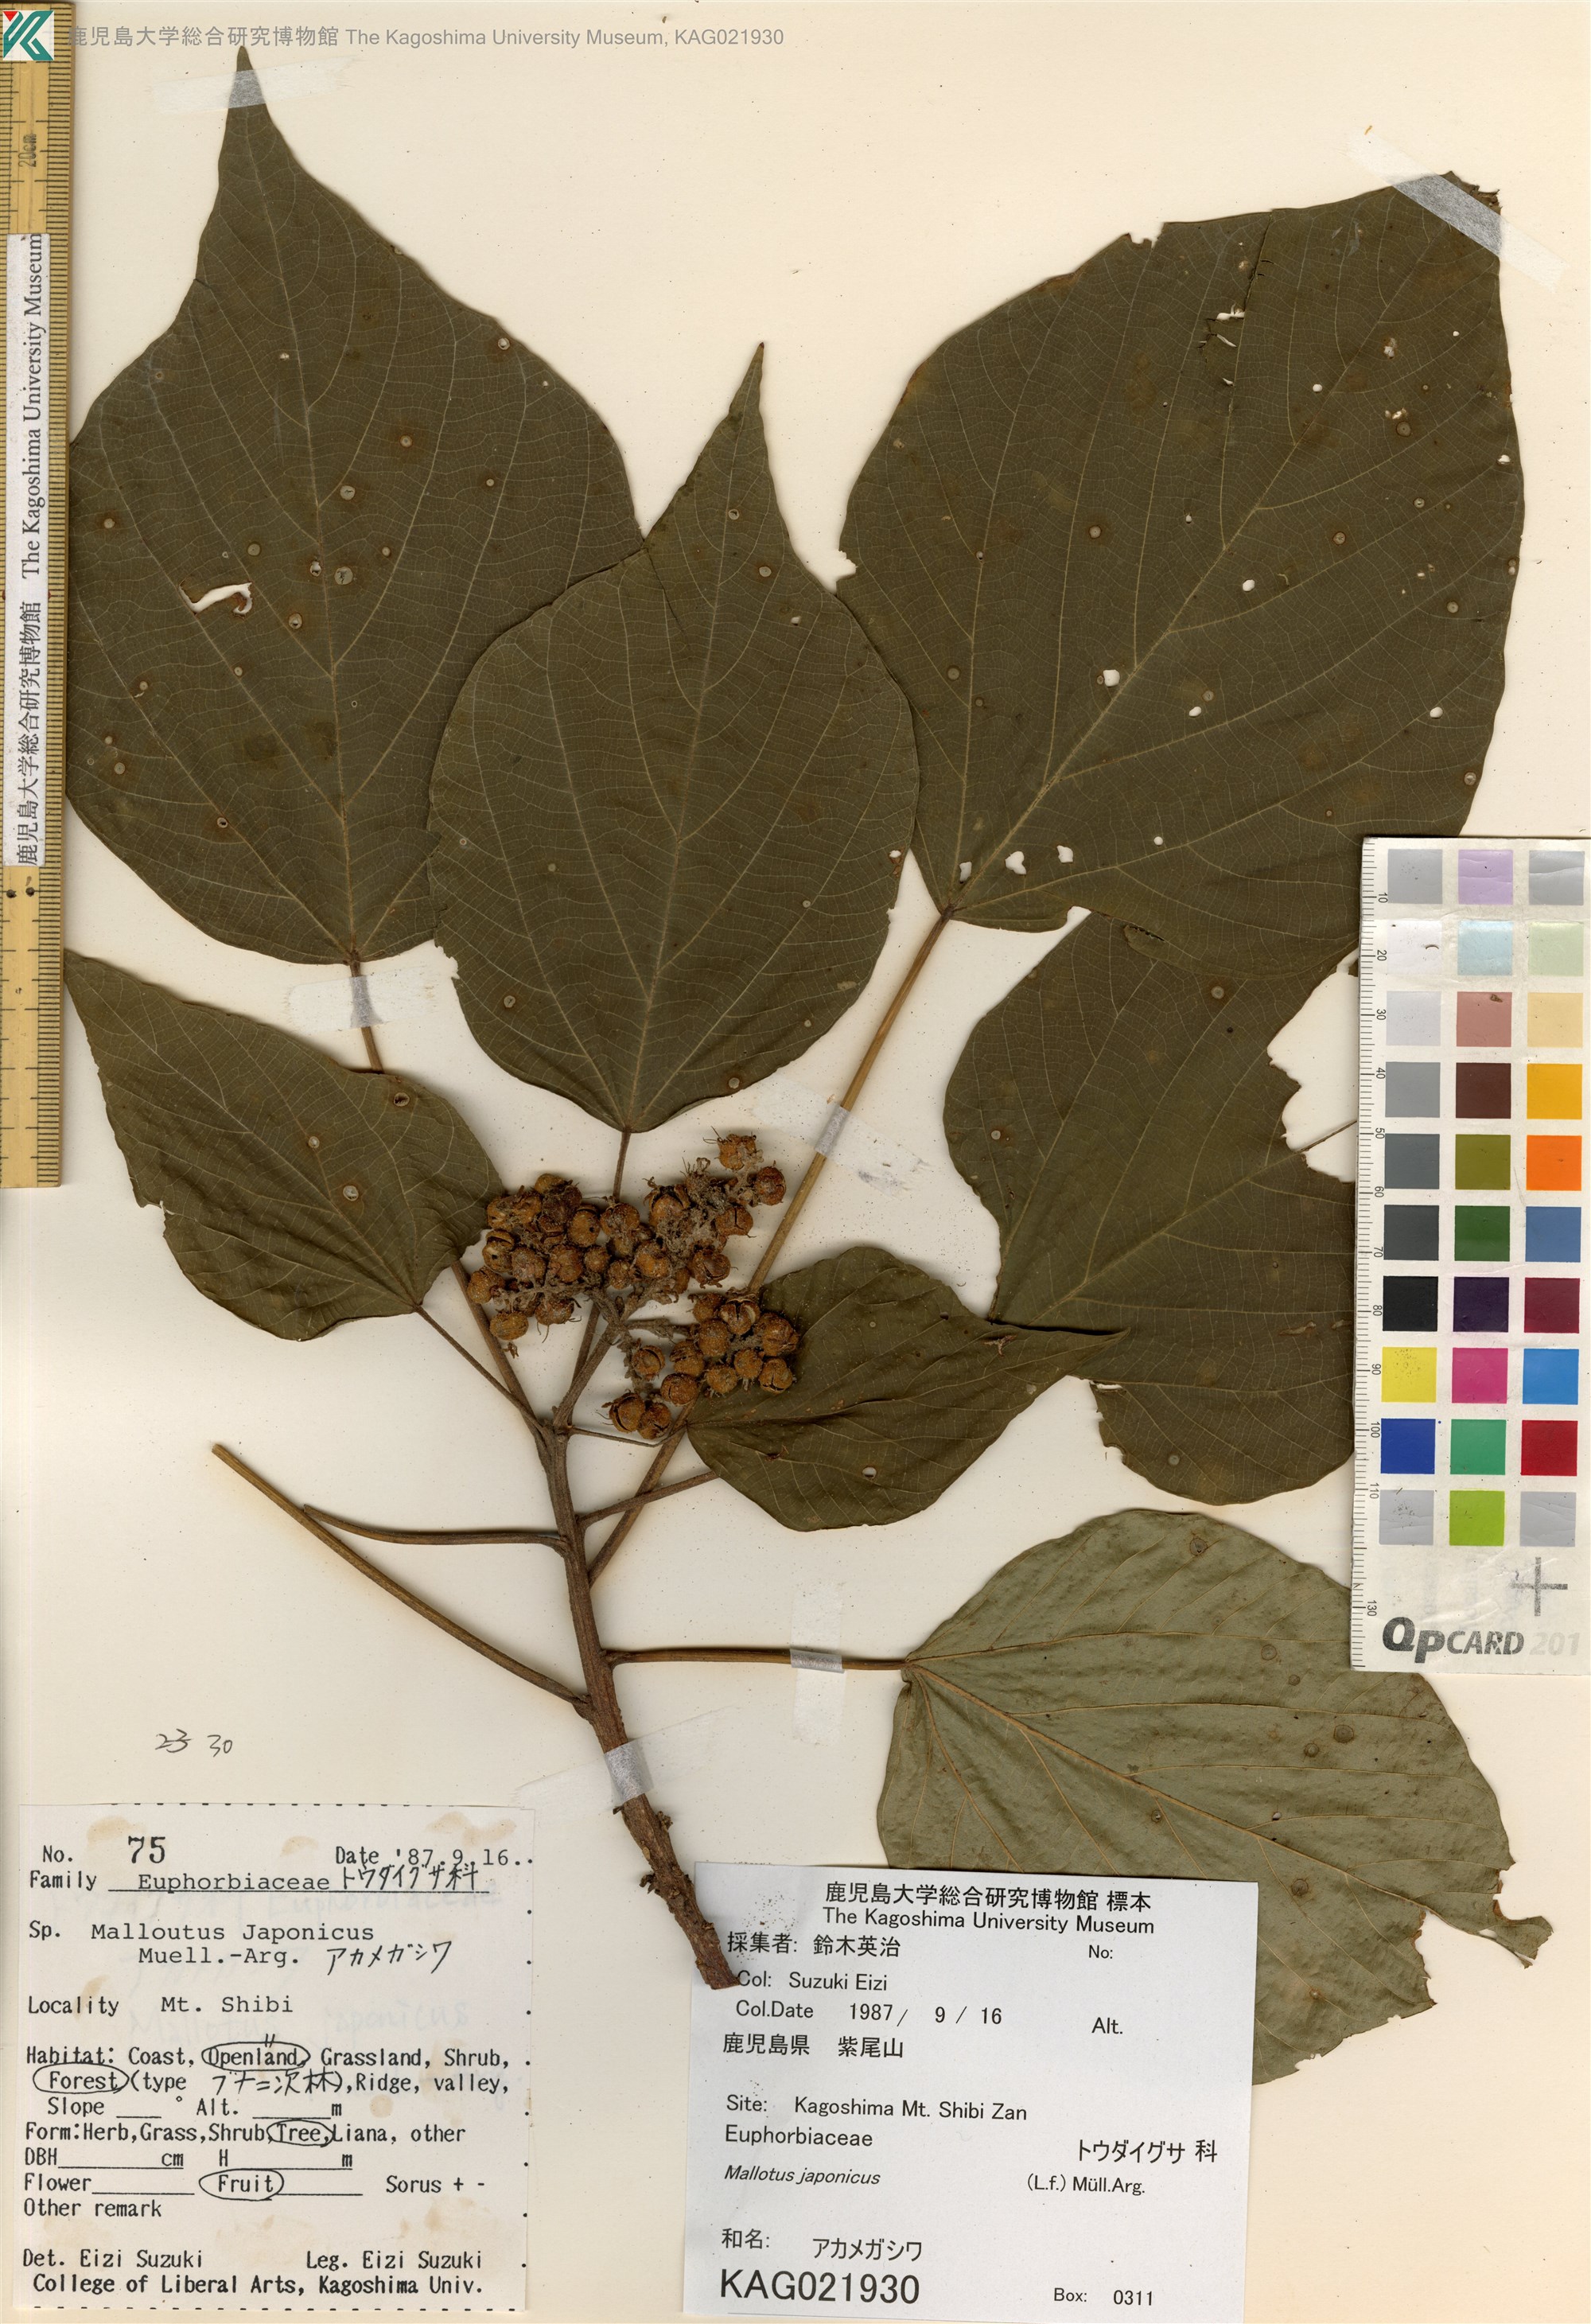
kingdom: Plantae
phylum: Tracheophyta
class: Magnoliopsida
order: Malpighiales
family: Euphorbiaceae
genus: Mallotus
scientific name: Mallotus japonicus
